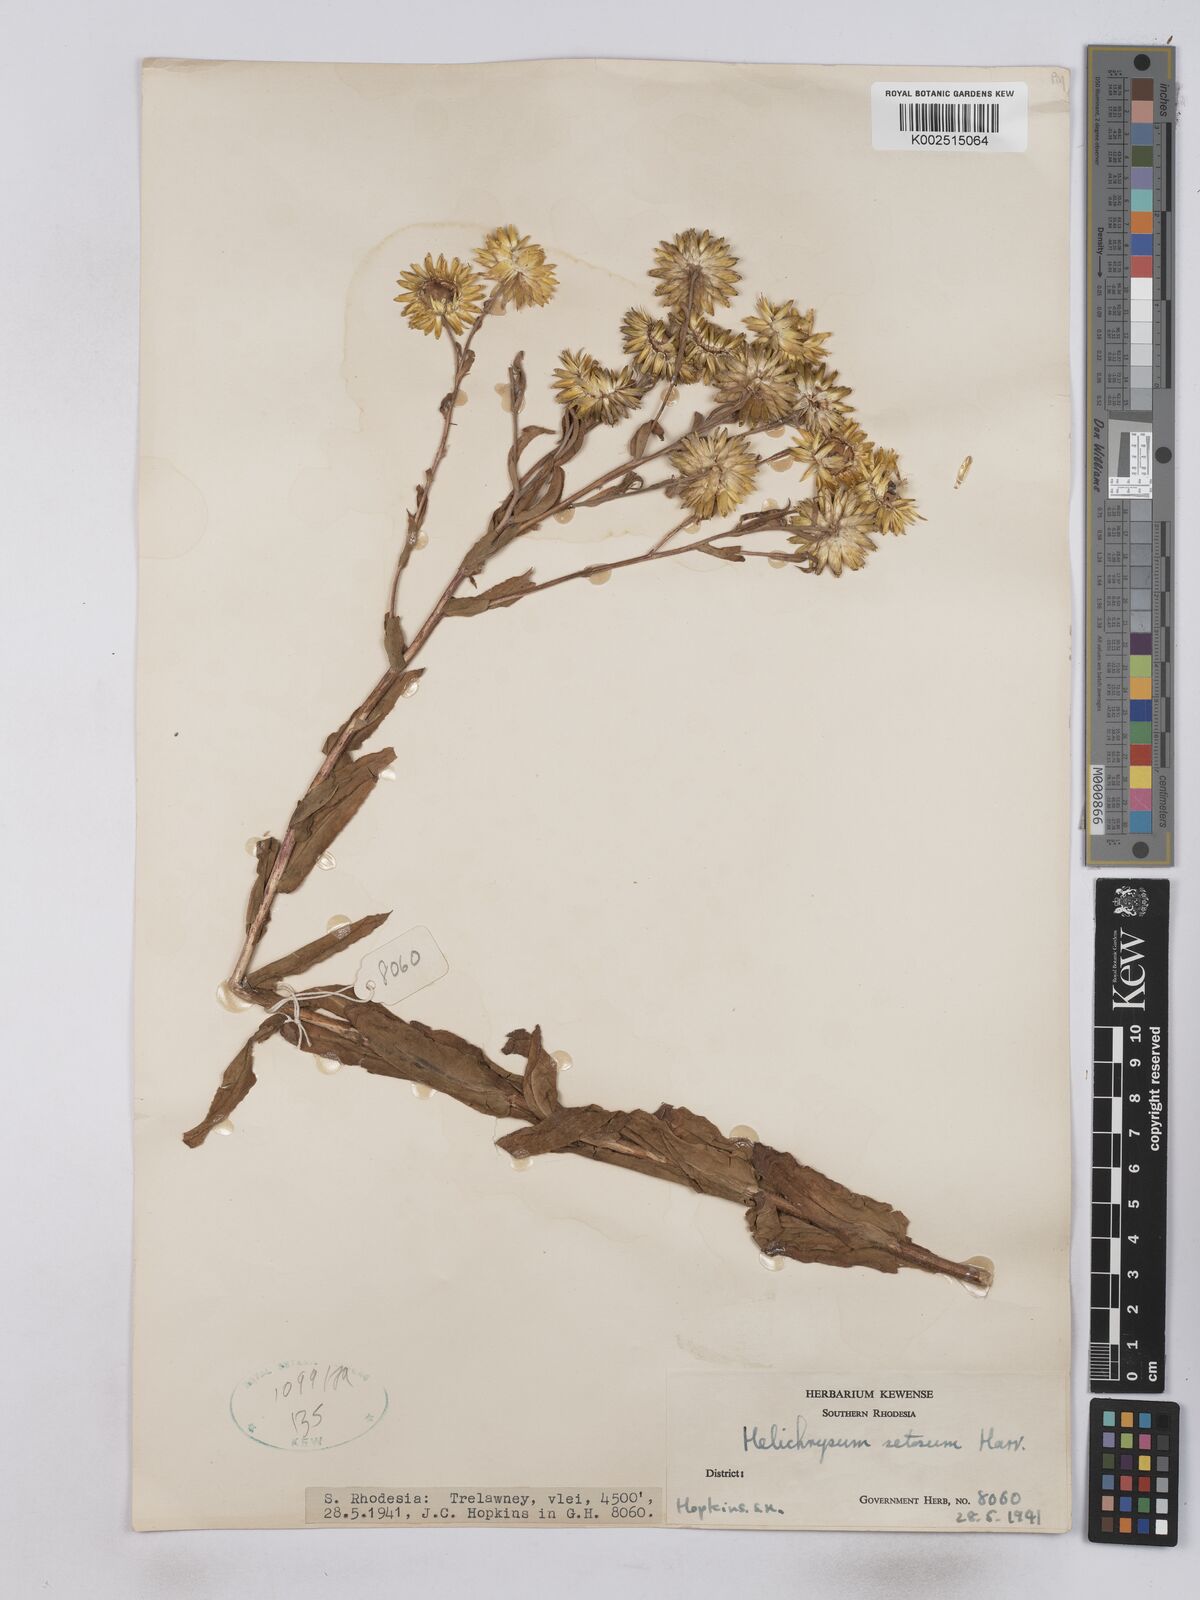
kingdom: Plantae
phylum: Tracheophyta
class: Magnoliopsida
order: Asterales
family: Asteraceae
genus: Helichrysum
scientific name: Helichrysum setosum
